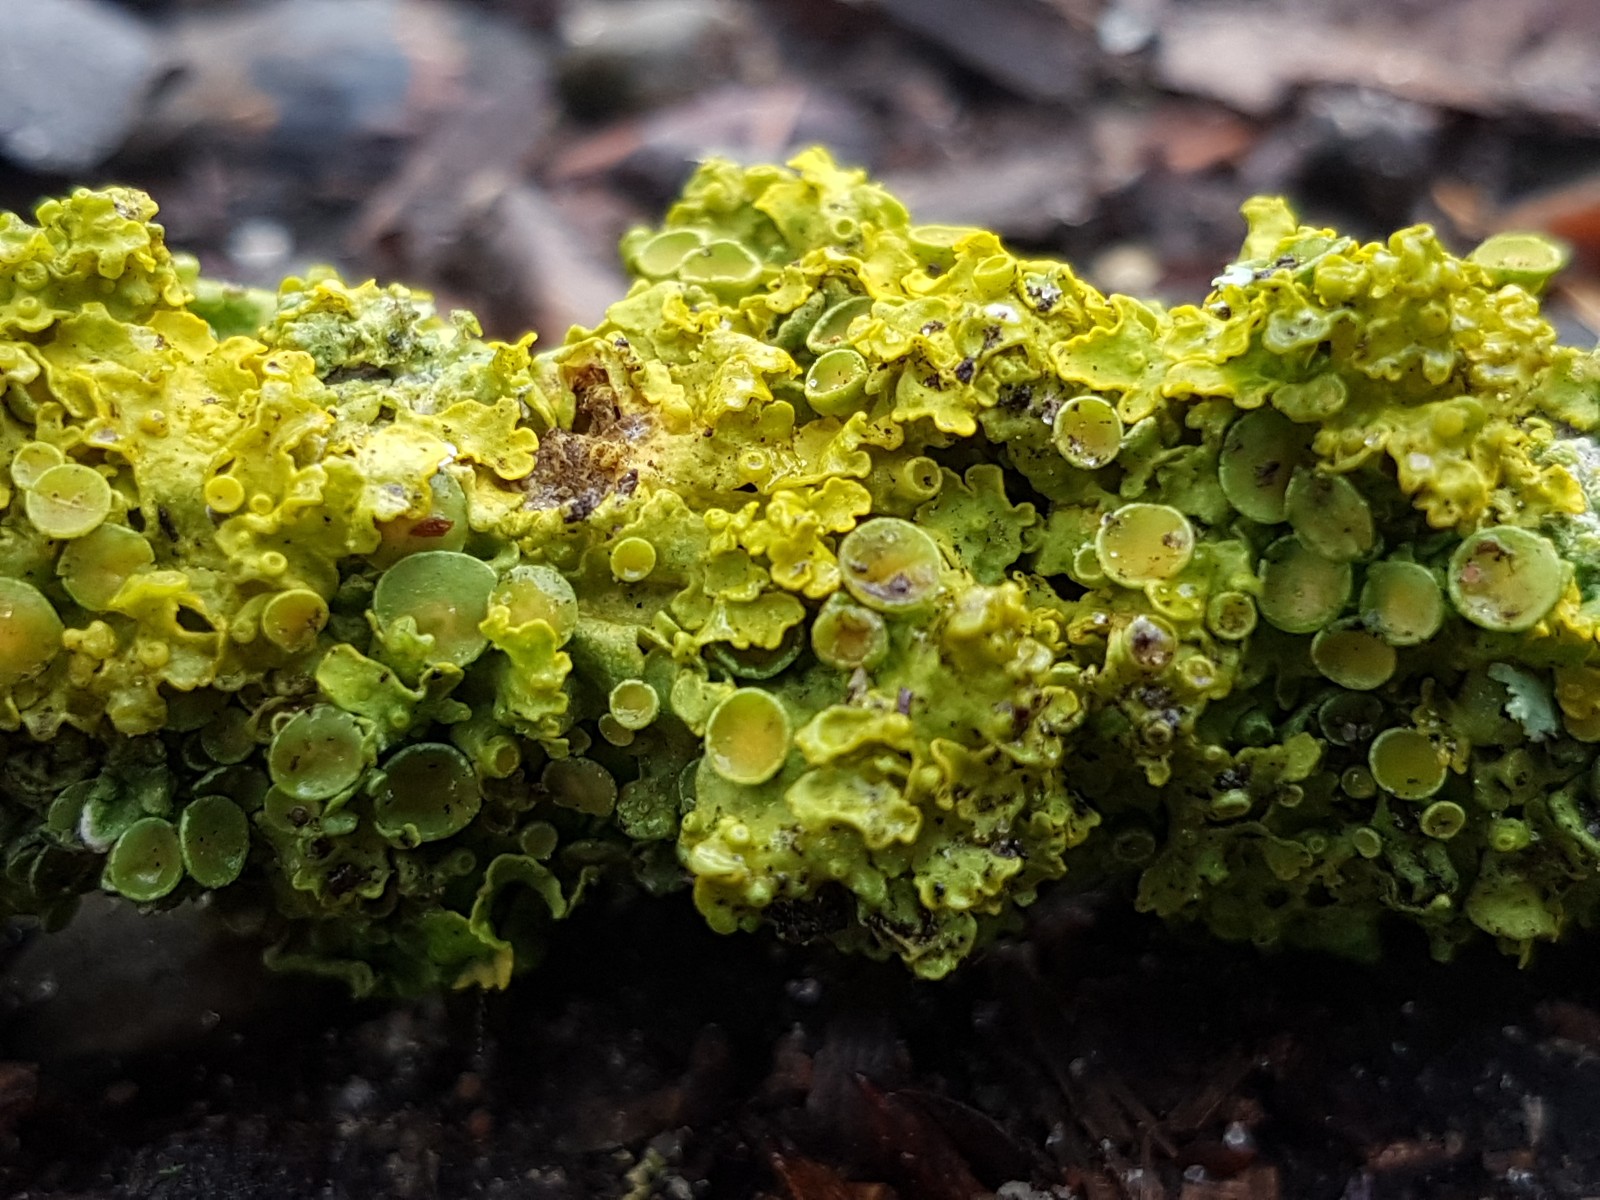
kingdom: Fungi
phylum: Ascomycota
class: Lecanoromycetes
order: Teloschistales
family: Teloschistaceae
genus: Xanthoria
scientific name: Xanthoria parietina
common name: almindelig væggelav
